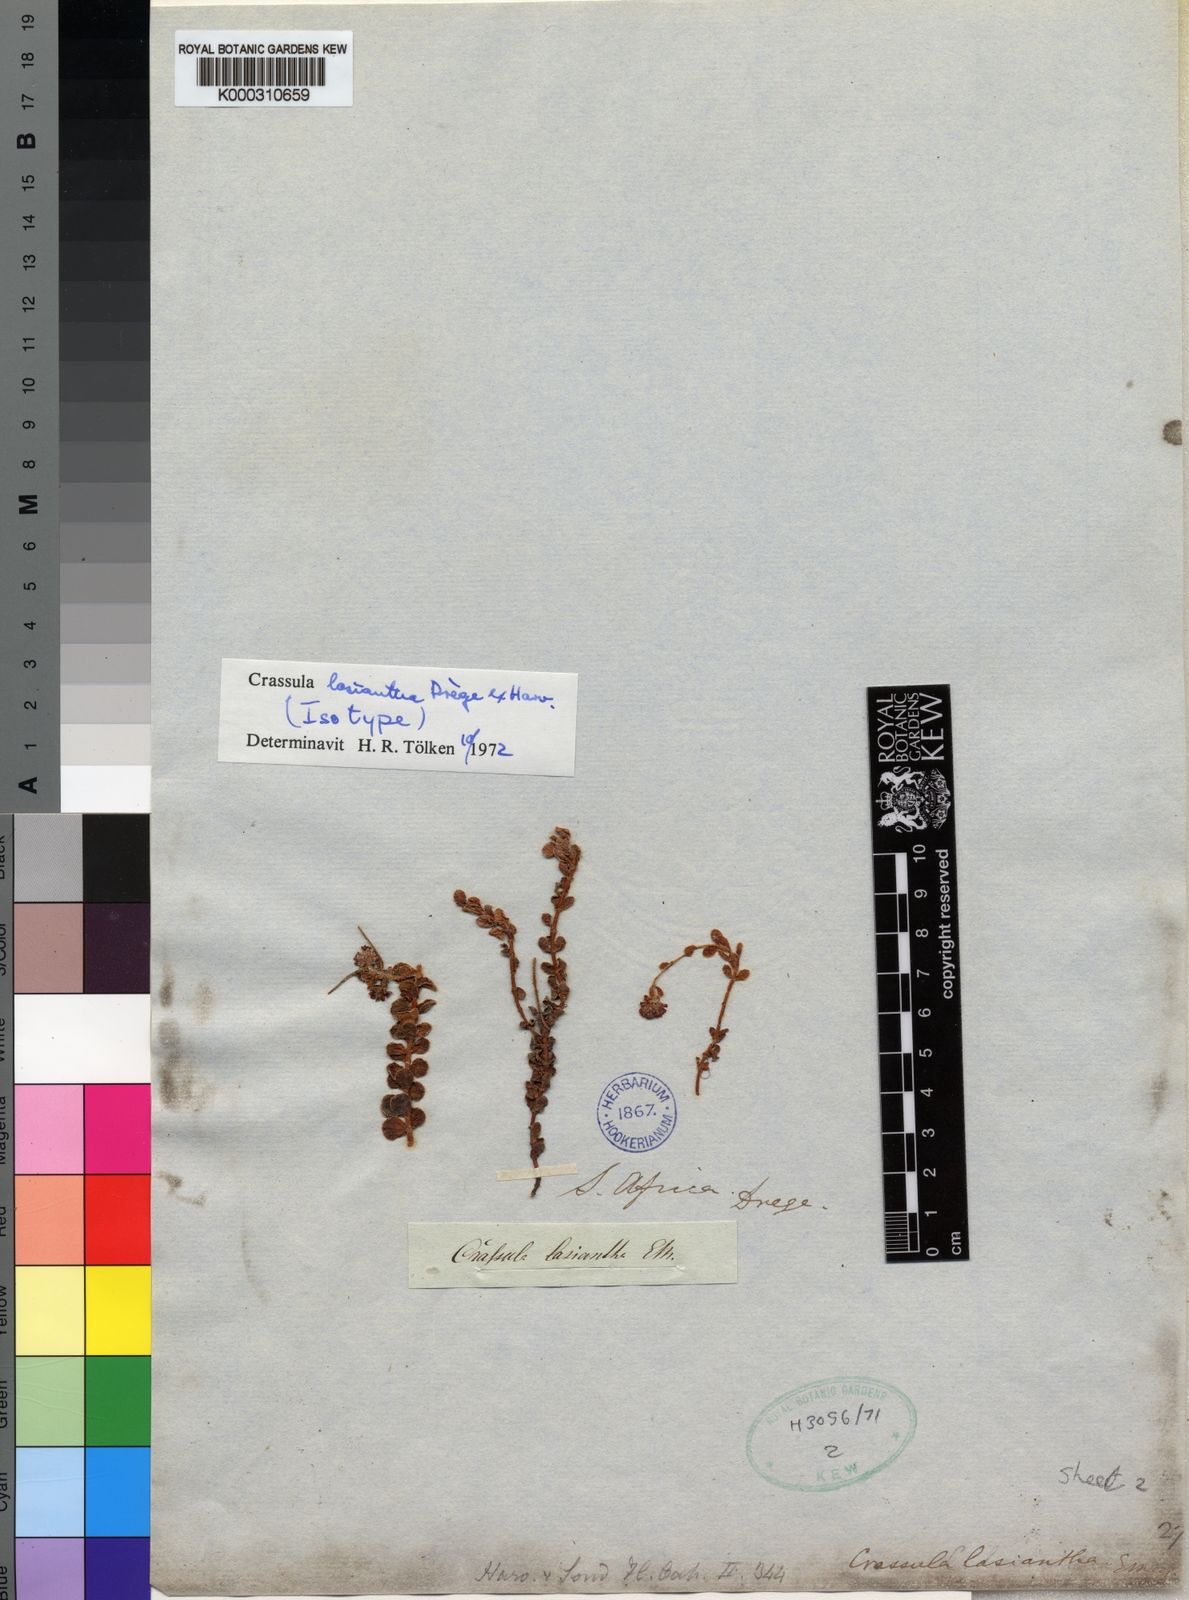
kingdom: Plantae
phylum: Tracheophyta
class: Magnoliopsida
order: Saxifragales
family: Crassulaceae
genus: Crassula
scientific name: Crassula
